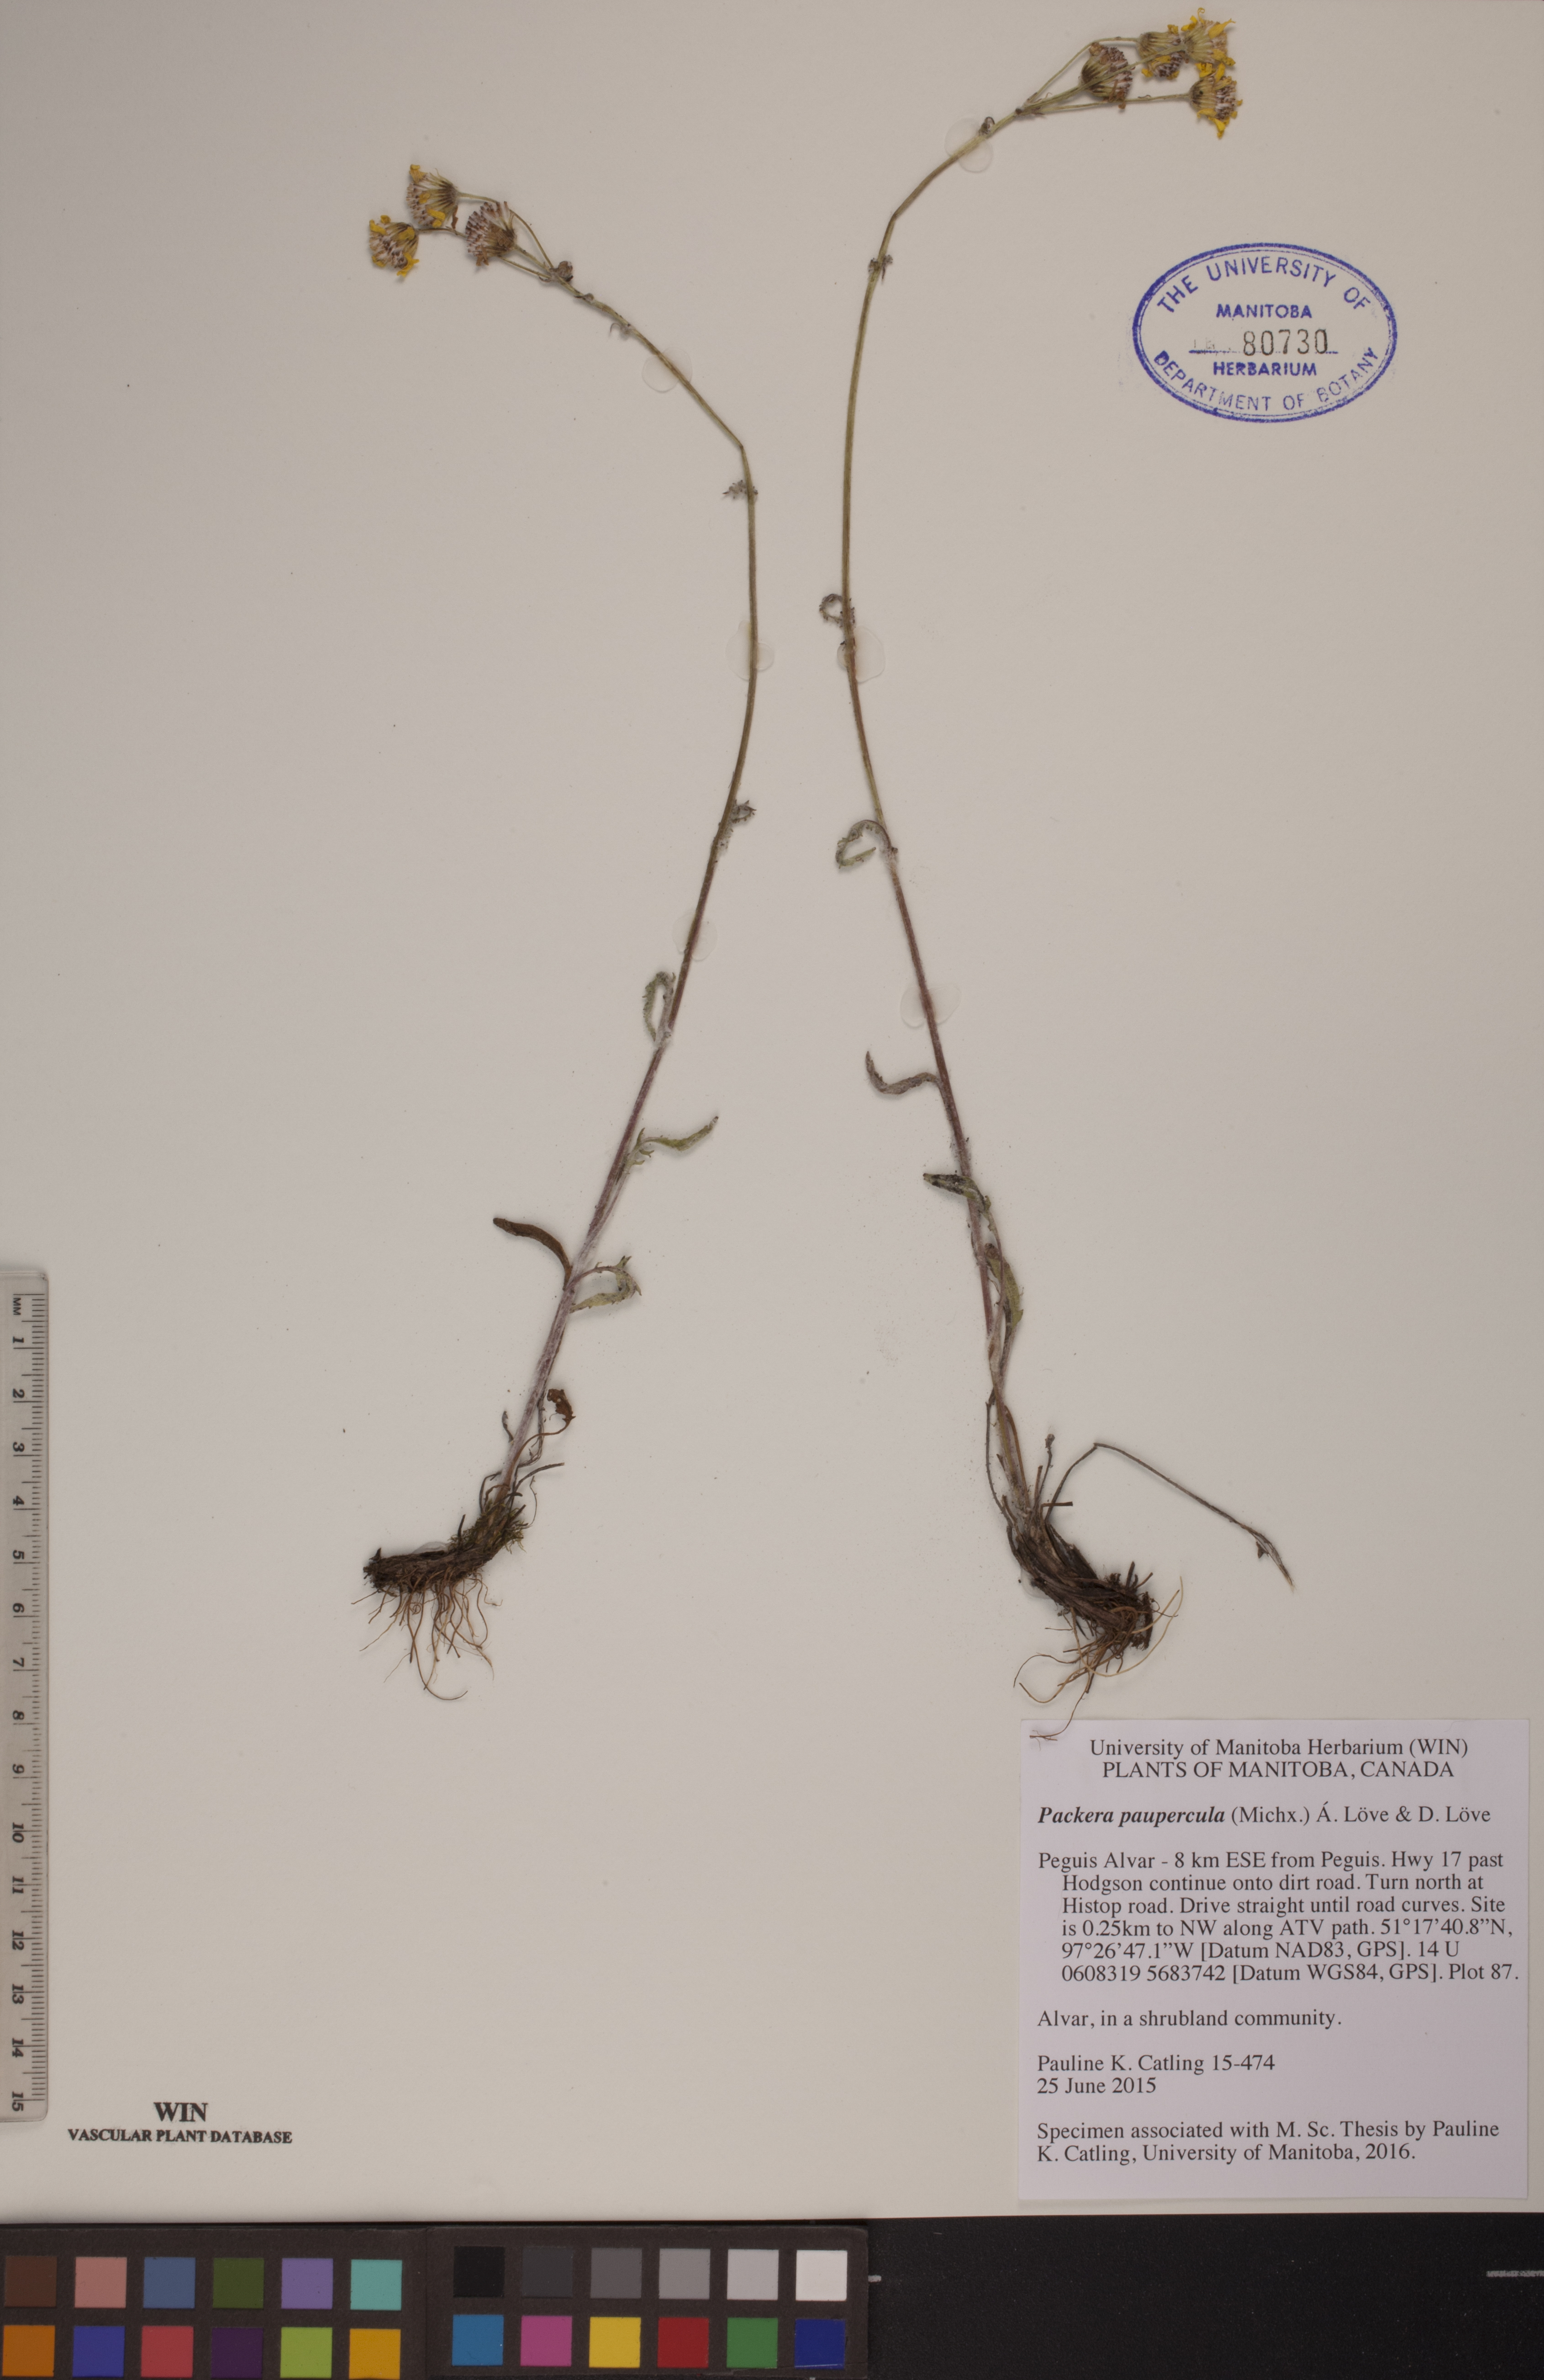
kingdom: Plantae
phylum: Tracheophyta
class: Magnoliopsida
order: Asterales
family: Asteraceae
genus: Packera
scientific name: Packera paupercula
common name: Balsam groundsel
